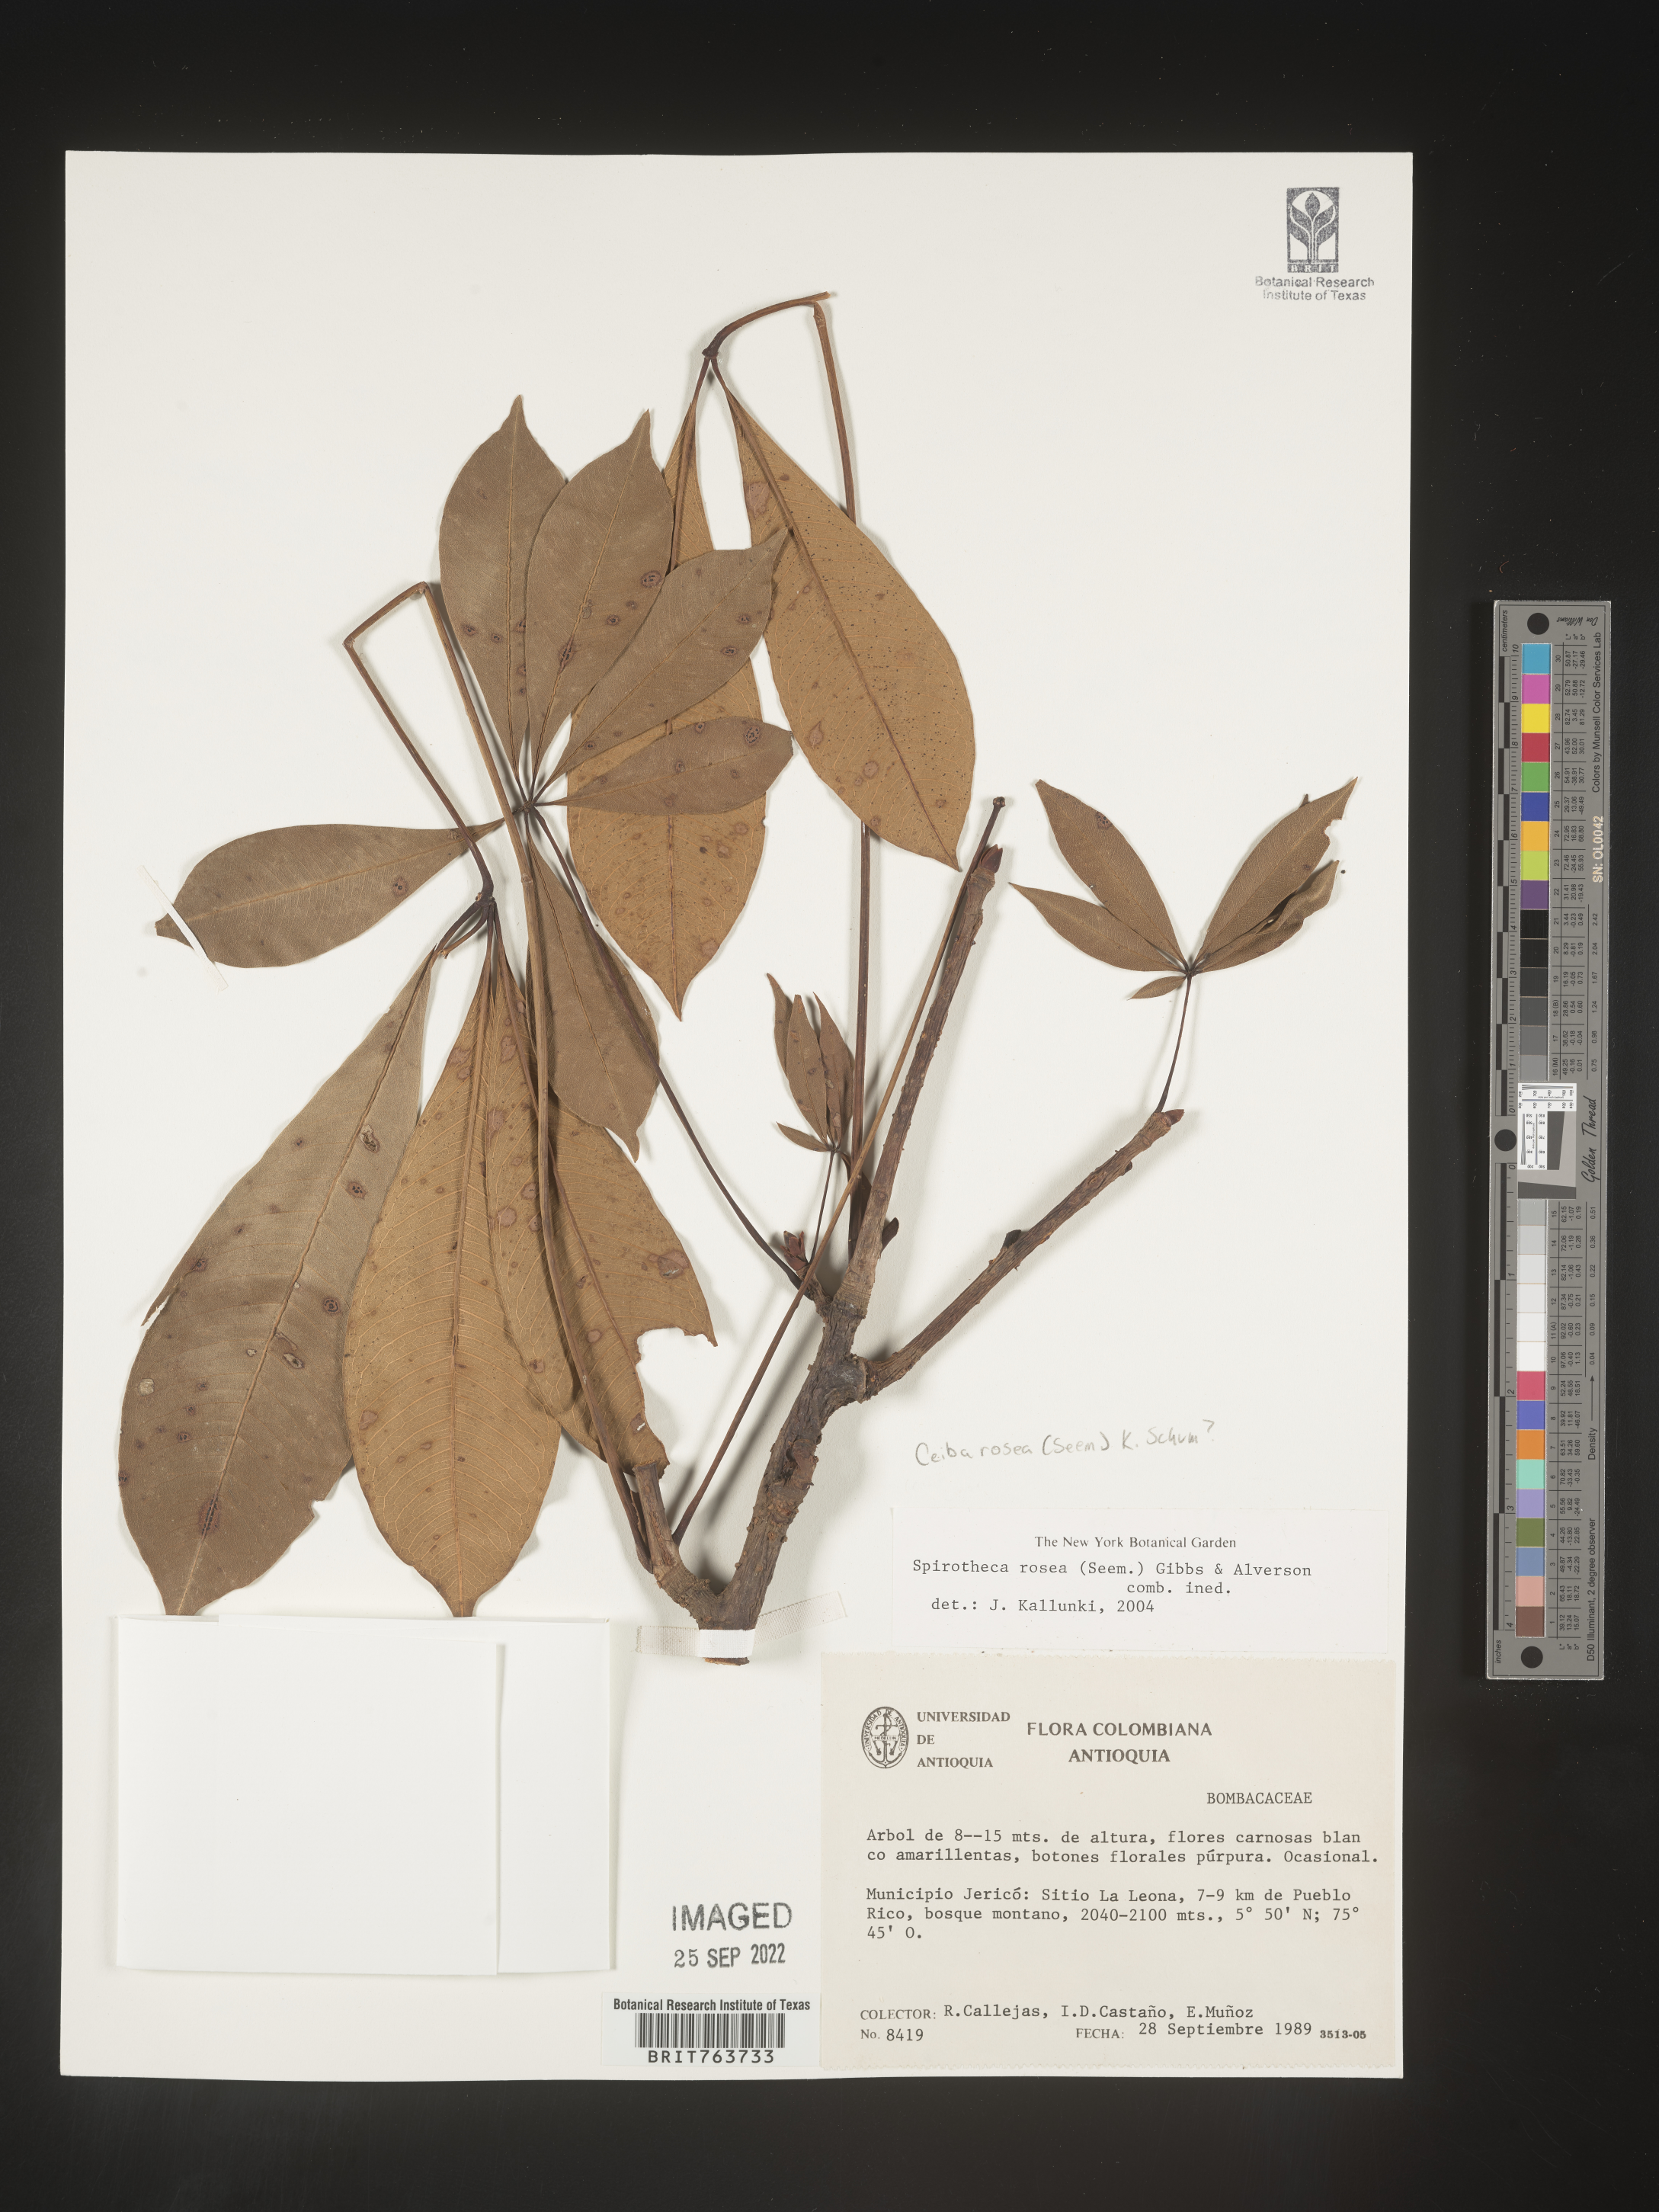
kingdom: Plantae
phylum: Tracheophyta
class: Magnoliopsida
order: Malvales
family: Malvaceae
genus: Ceiba
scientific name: Ceiba
